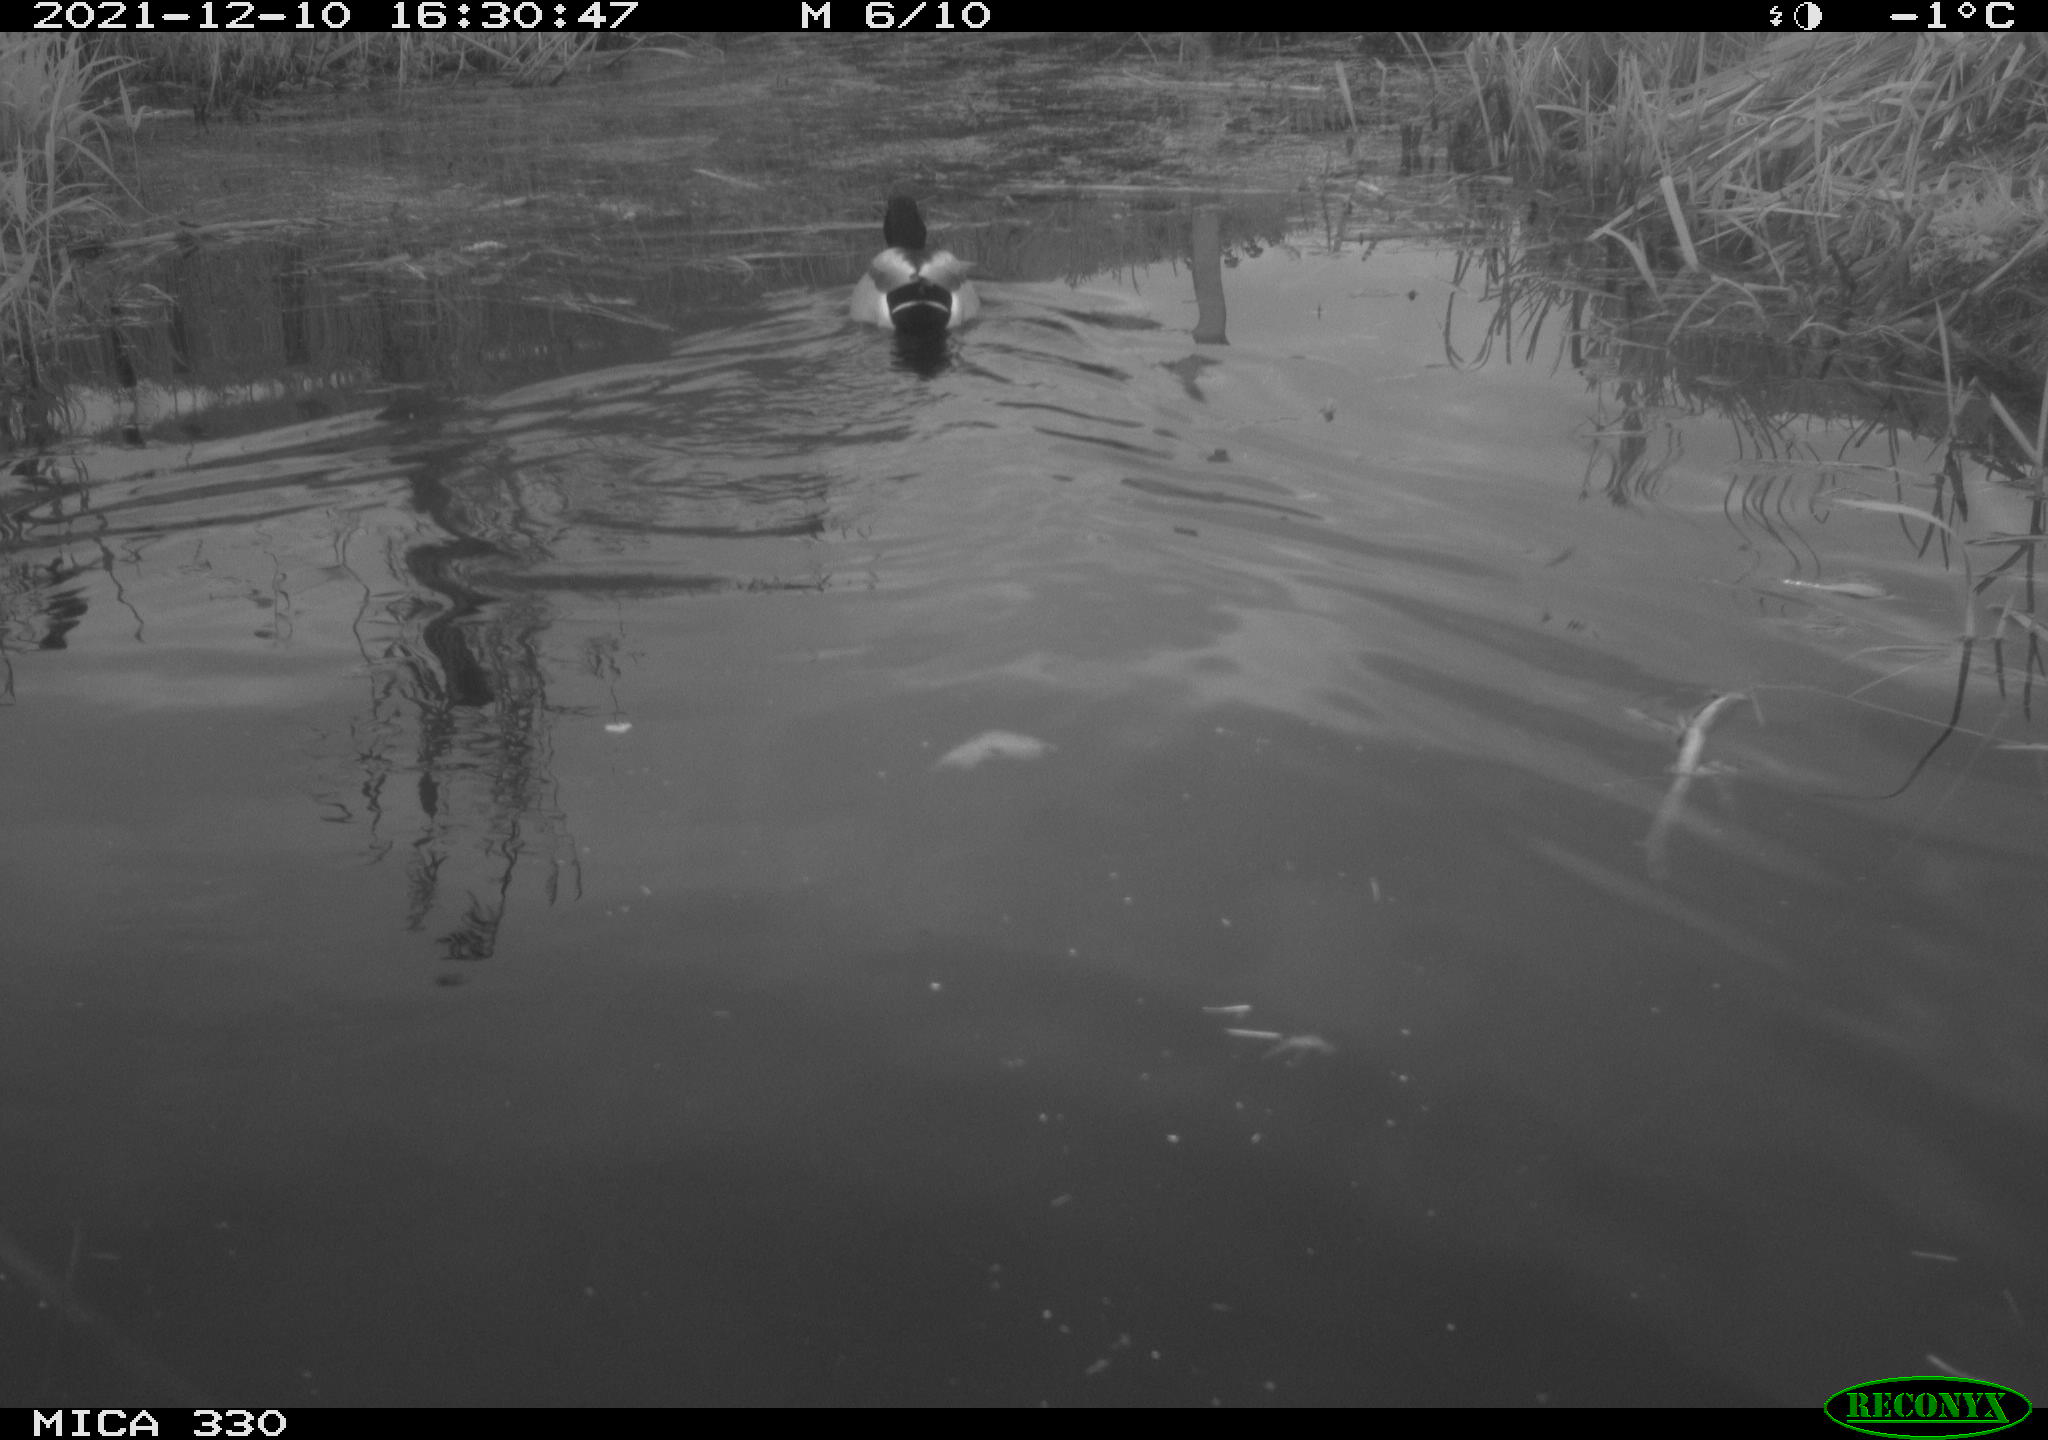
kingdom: Animalia
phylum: Chordata
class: Aves
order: Anseriformes
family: Anatidae
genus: Anas
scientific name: Anas platyrhynchos
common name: Mallard
